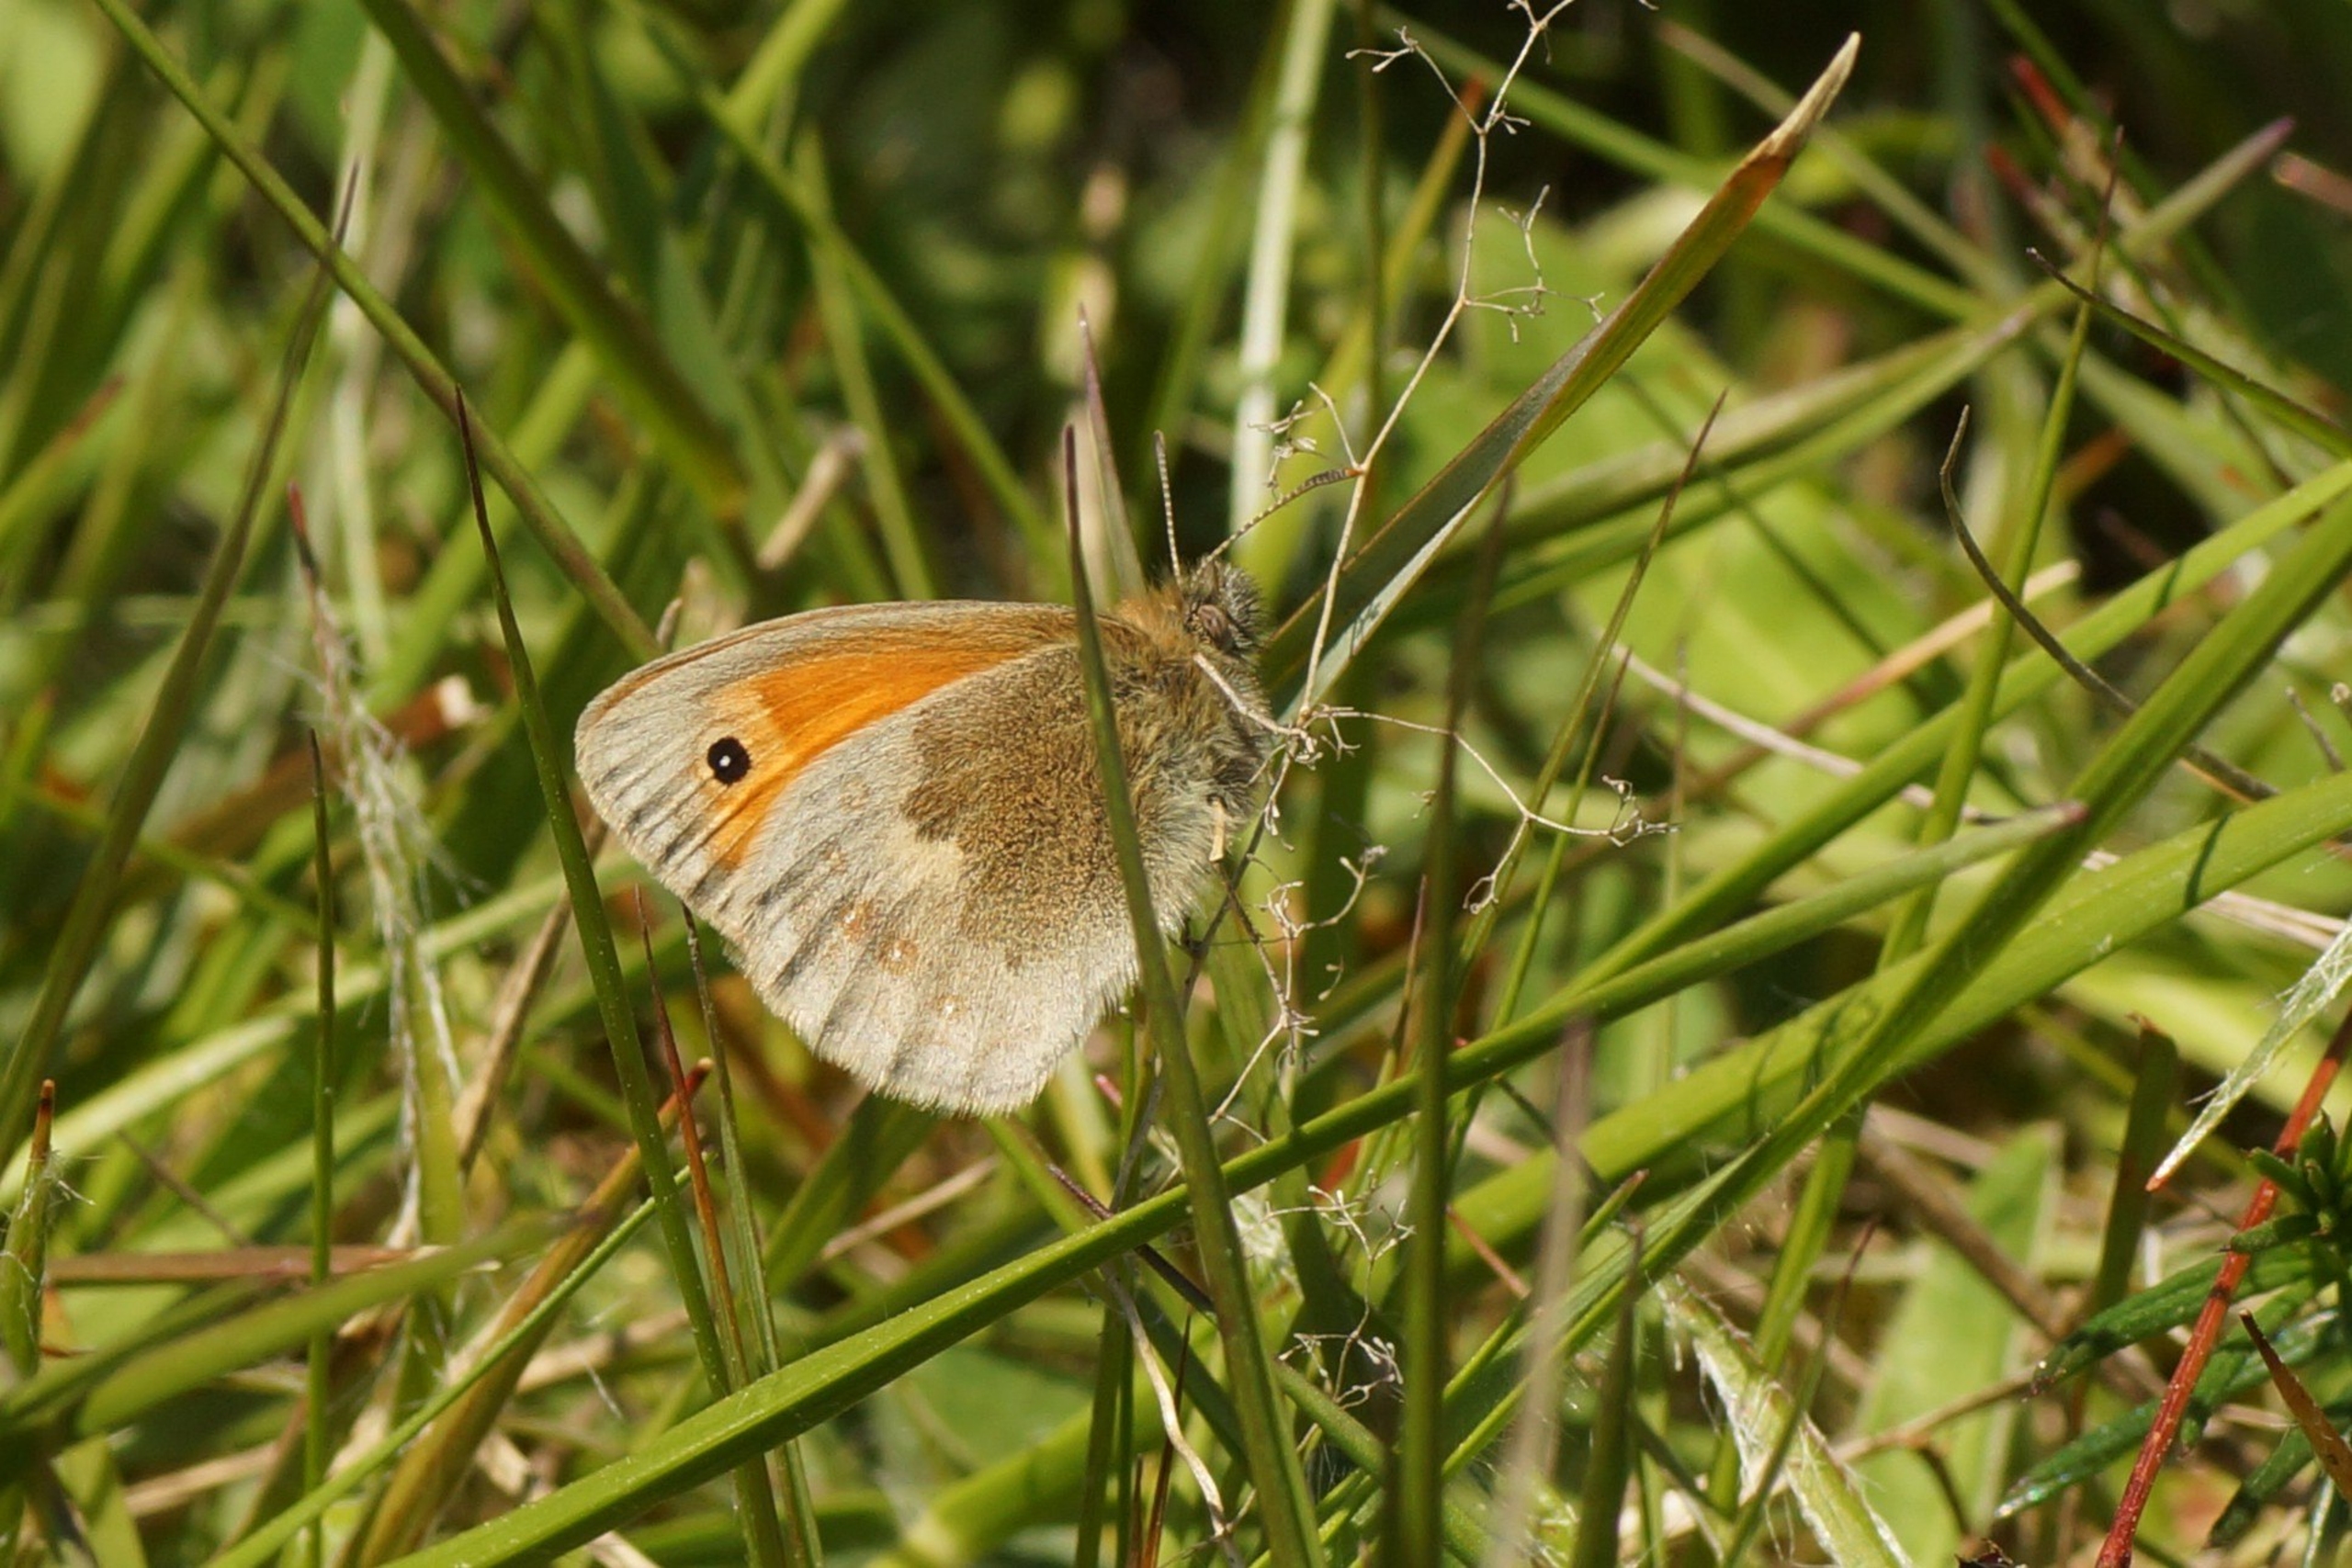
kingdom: Animalia
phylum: Arthropoda
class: Insecta
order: Lepidoptera
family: Nymphalidae
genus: Coenonympha
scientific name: Coenonympha pamphilus
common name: Okkergul randøje
